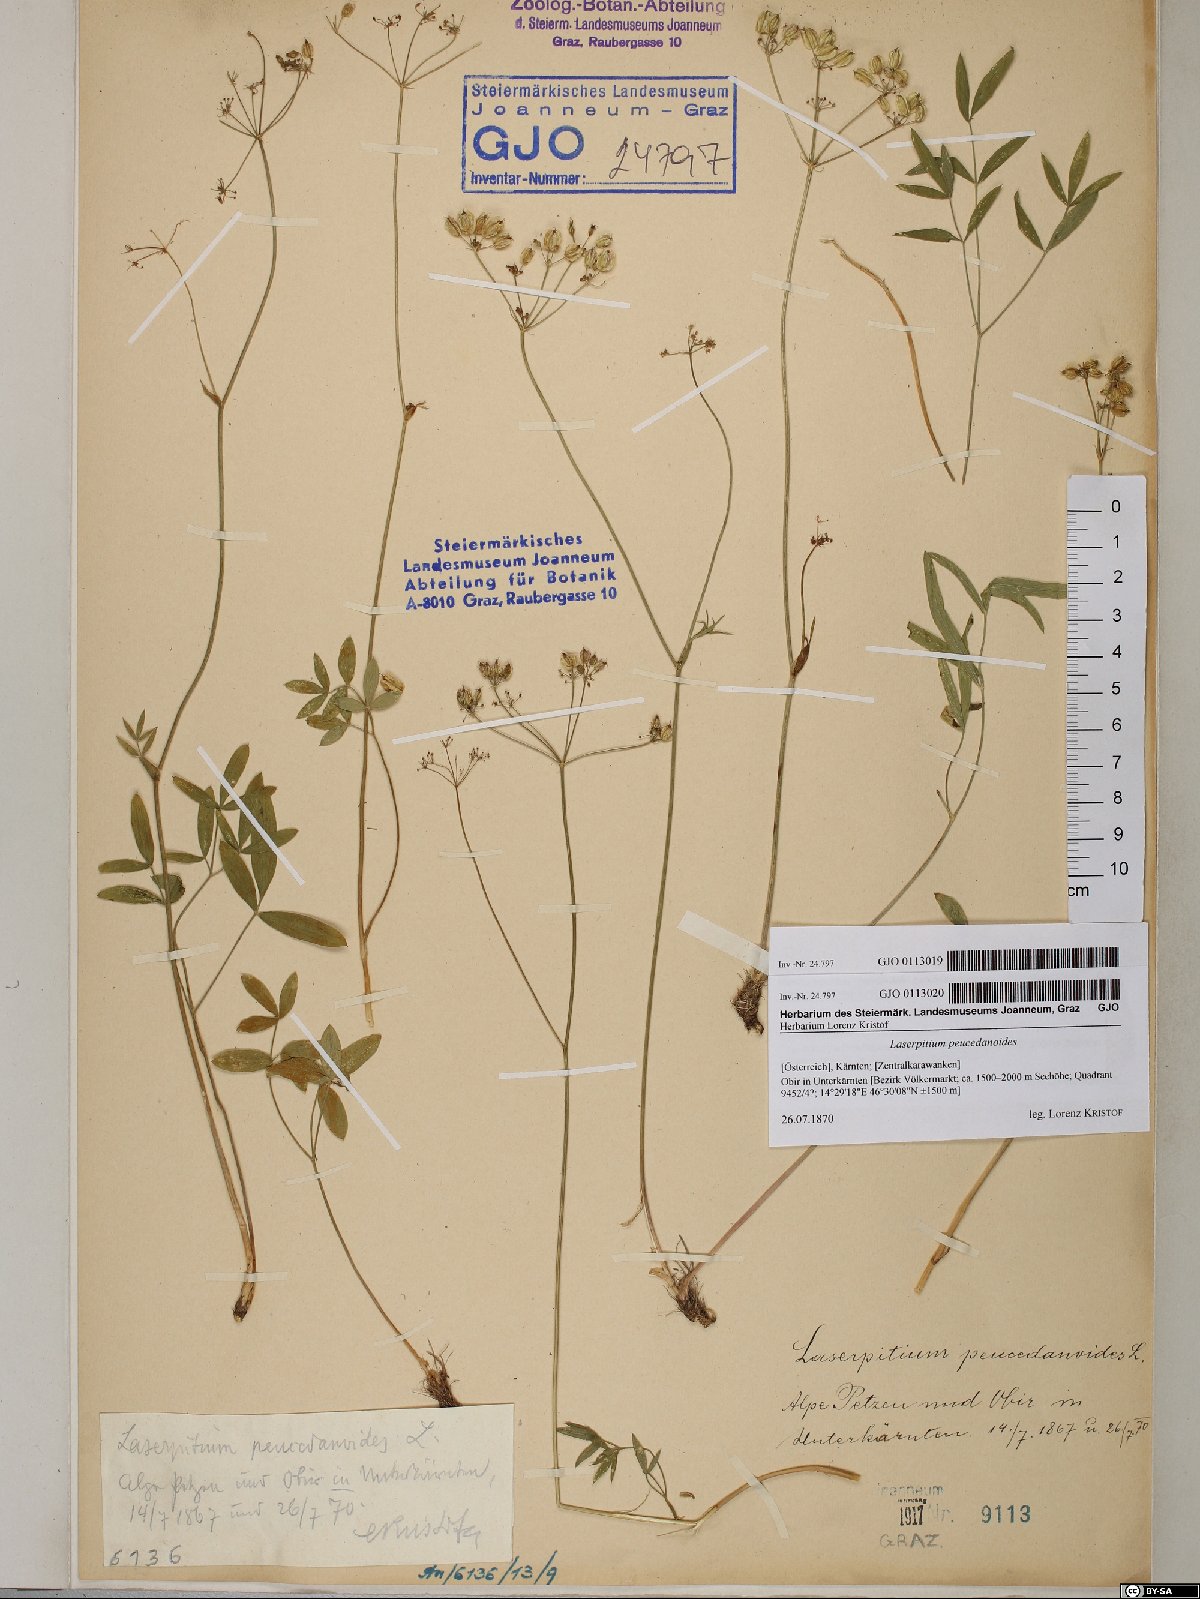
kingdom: Plantae
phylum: Tracheophyta
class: Magnoliopsida
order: Apiales
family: Apiaceae
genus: Laserpitium
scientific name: Laserpitium peucedanoides
